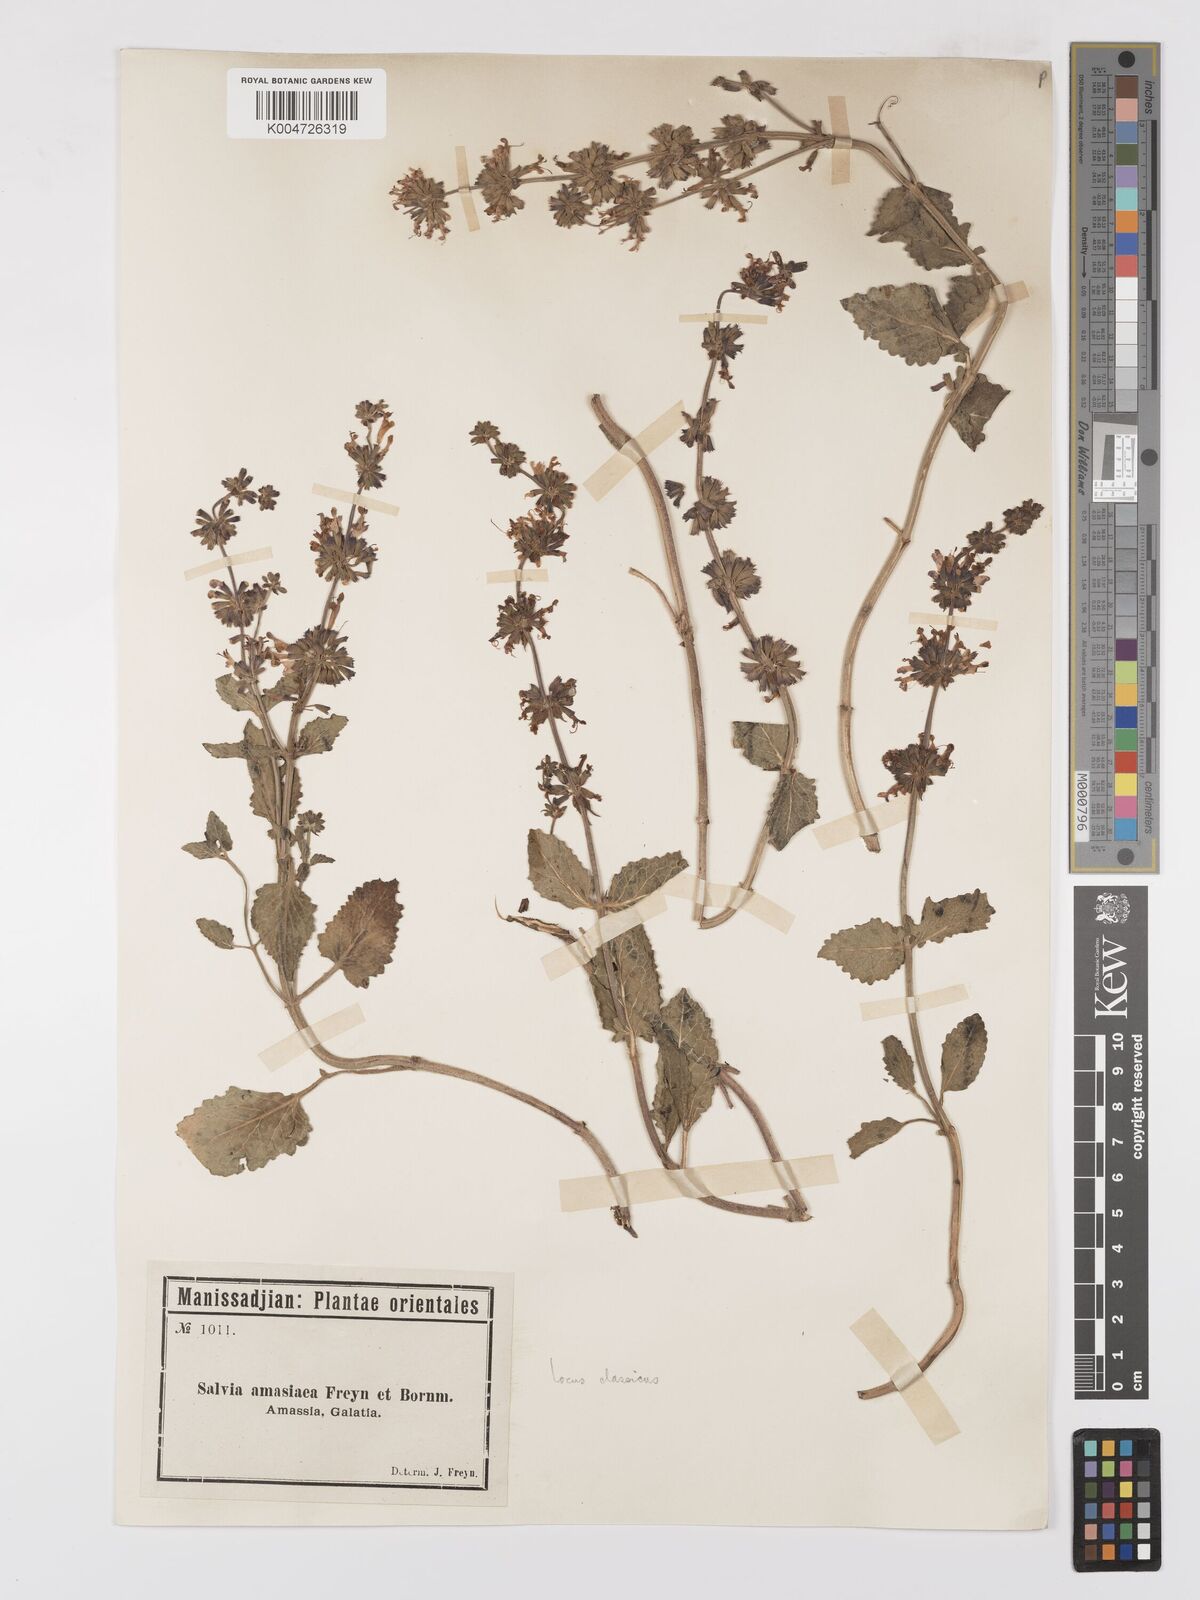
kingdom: Plantae
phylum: Tracheophyta
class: Magnoliopsida
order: Lamiales
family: Lamiaceae
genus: Salvia
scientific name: Salvia verticillata
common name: Whorled clary
